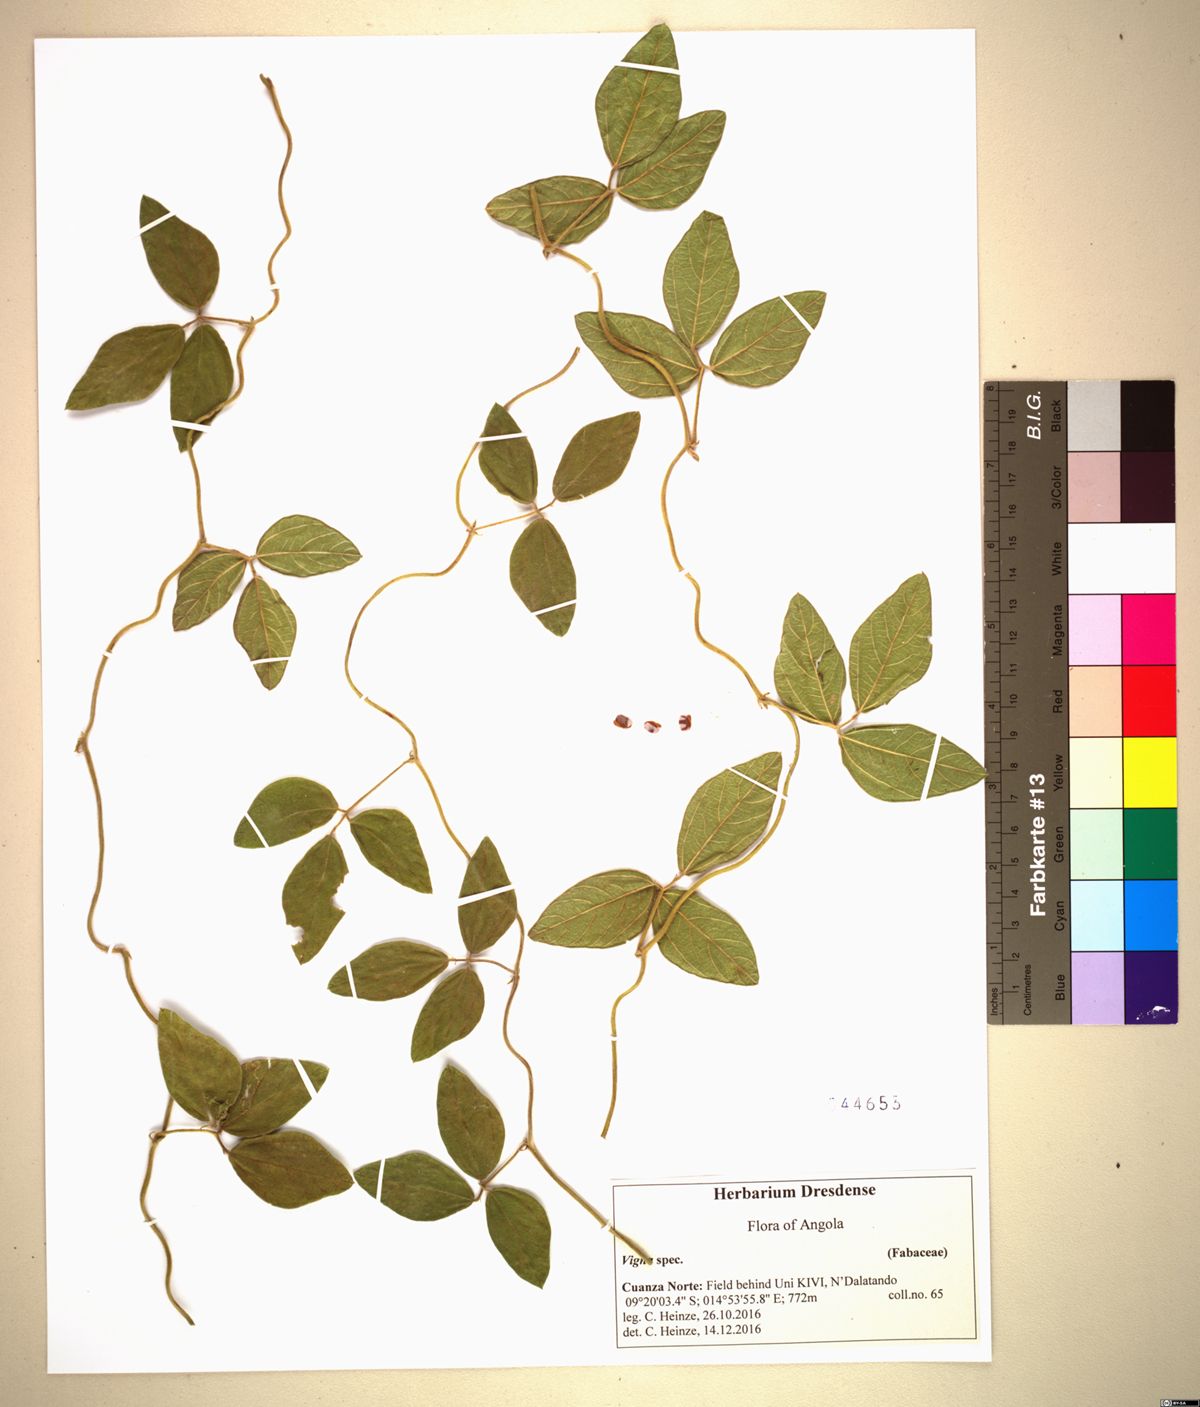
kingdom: Plantae
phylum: Tracheophyta
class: Magnoliopsida
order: Fabales
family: Fabaceae
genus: Vigna
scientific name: Vigna
